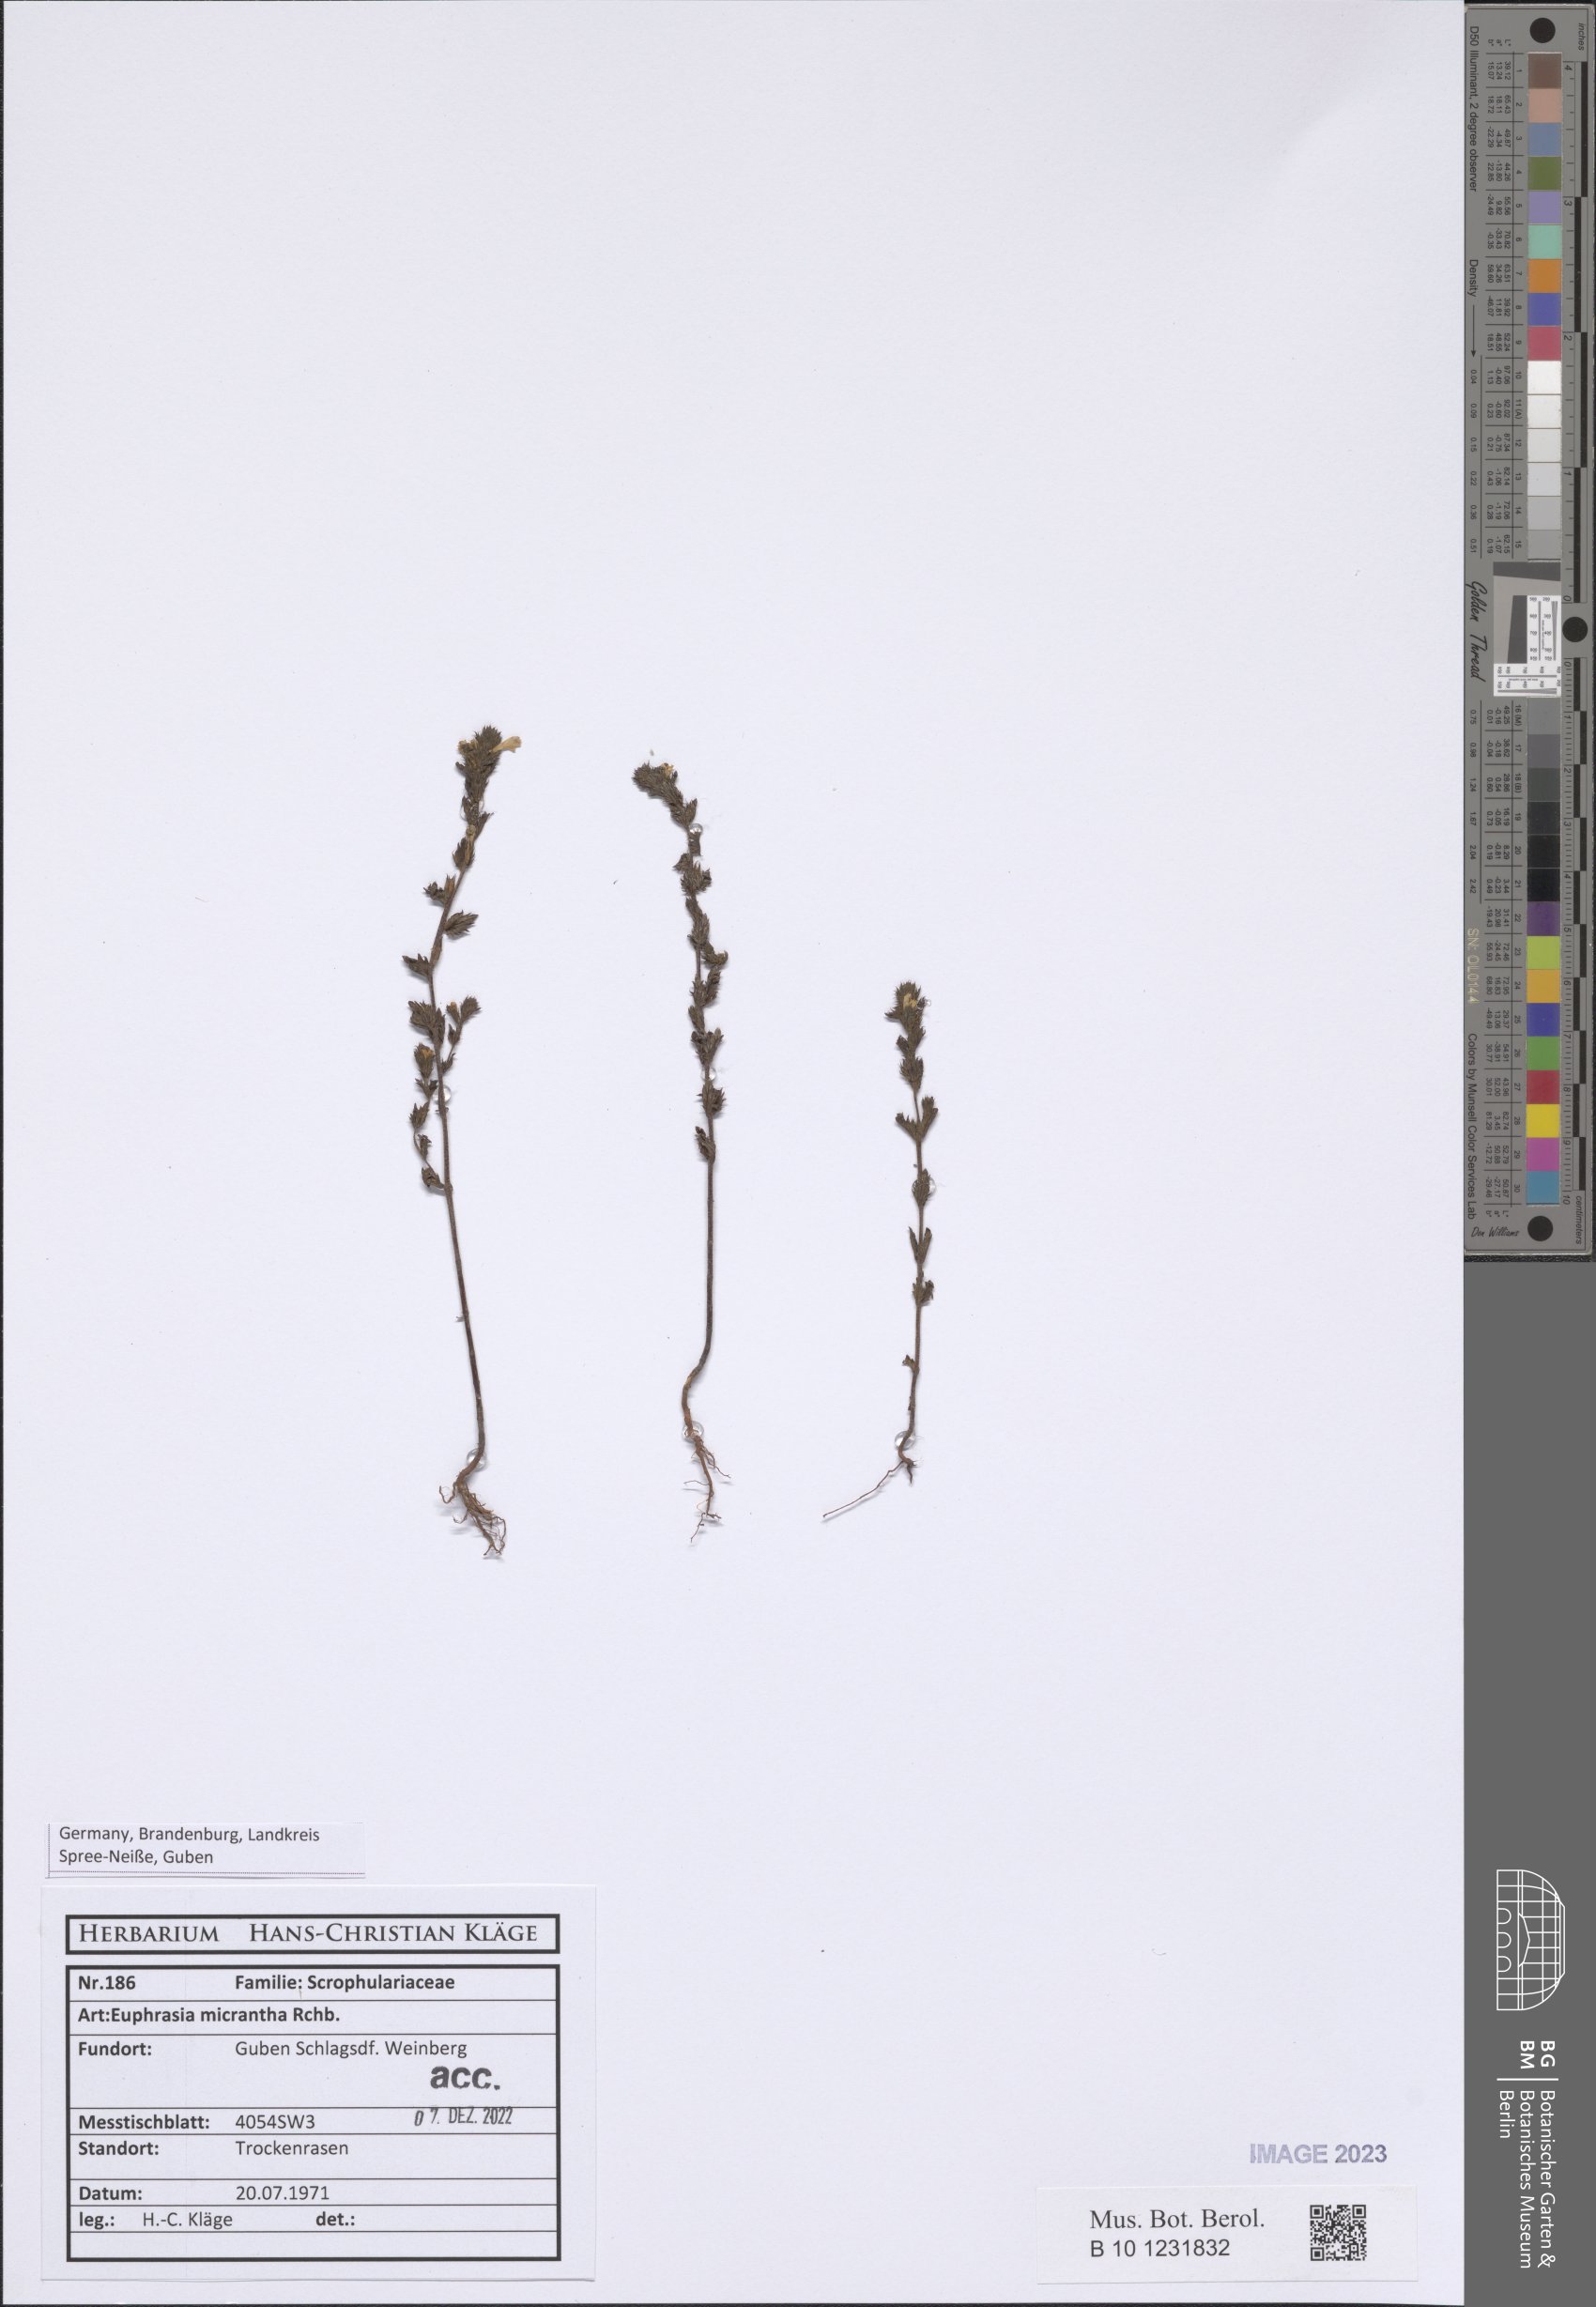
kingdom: Plantae
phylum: Tracheophyta
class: Magnoliopsida
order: Lamiales
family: Orobanchaceae
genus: Euphrasia
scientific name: Euphrasia micrantha
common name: Northern eyebright
